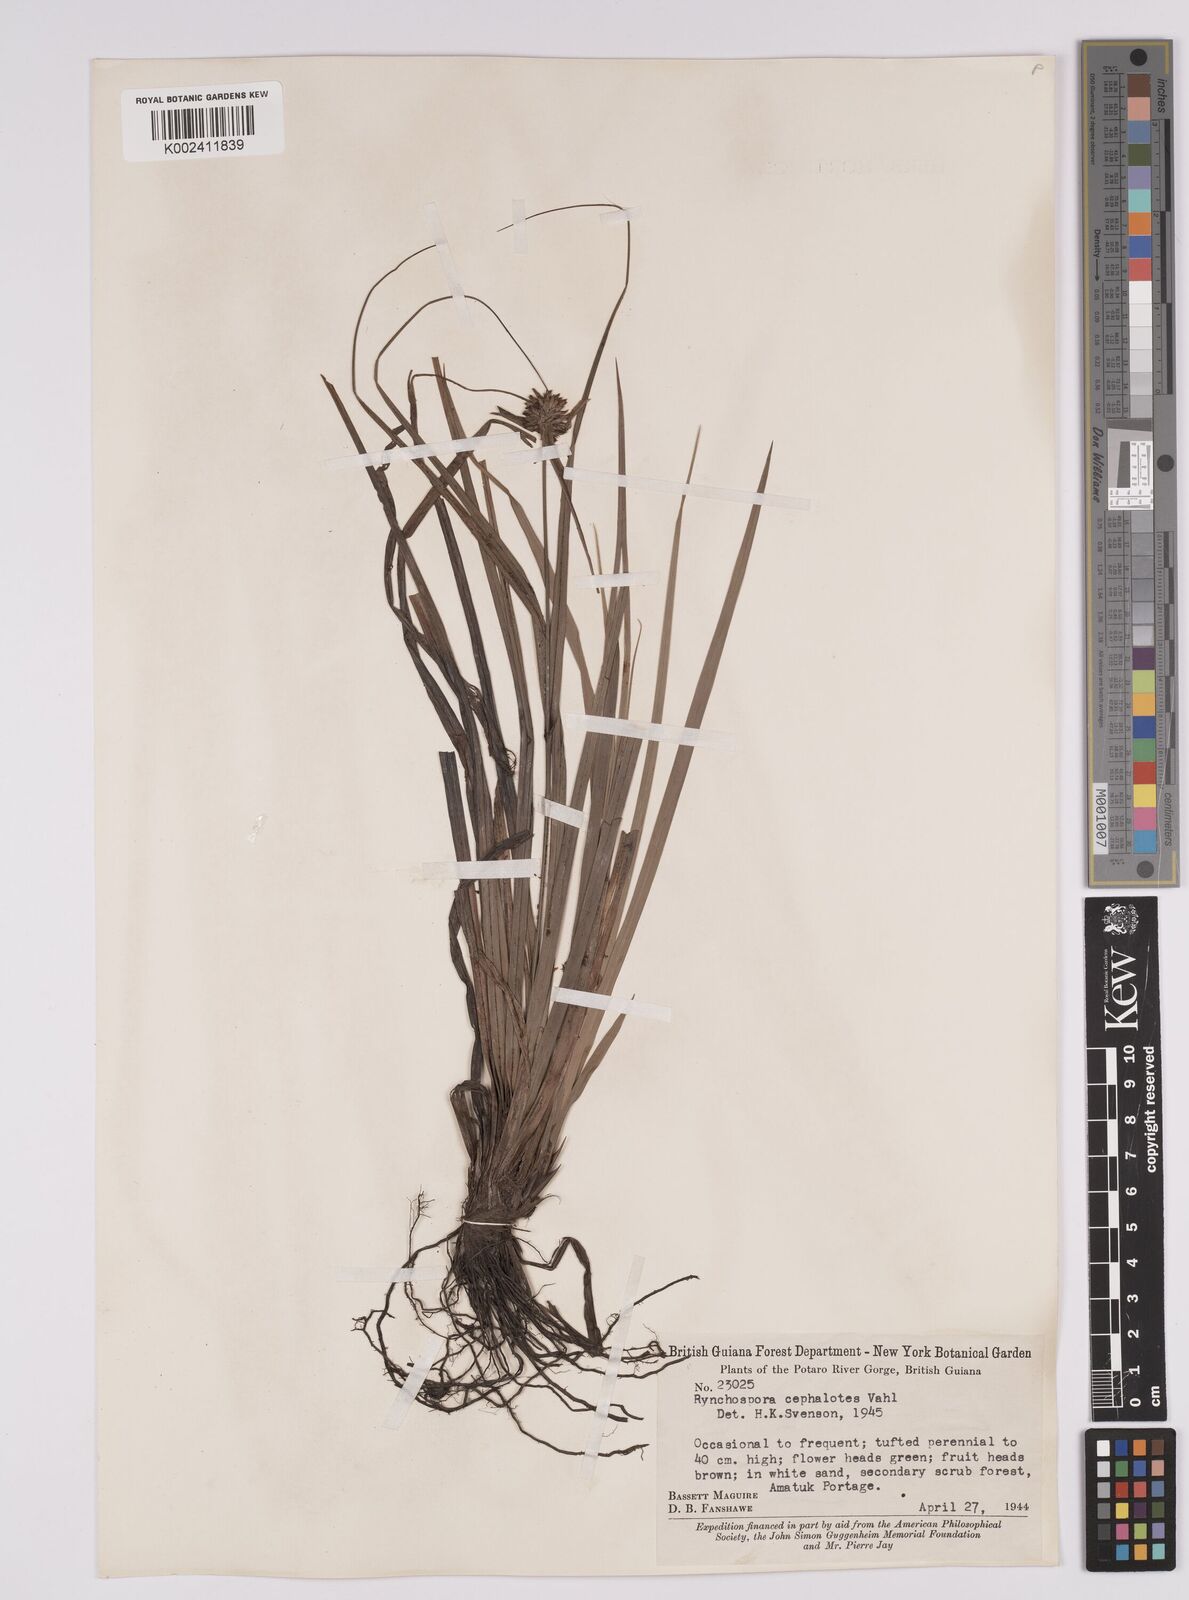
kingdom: Plantae
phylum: Tracheophyta
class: Liliopsida
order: Poales
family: Cyperaceae
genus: Rhynchospora
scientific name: Rhynchospora cephalotes
